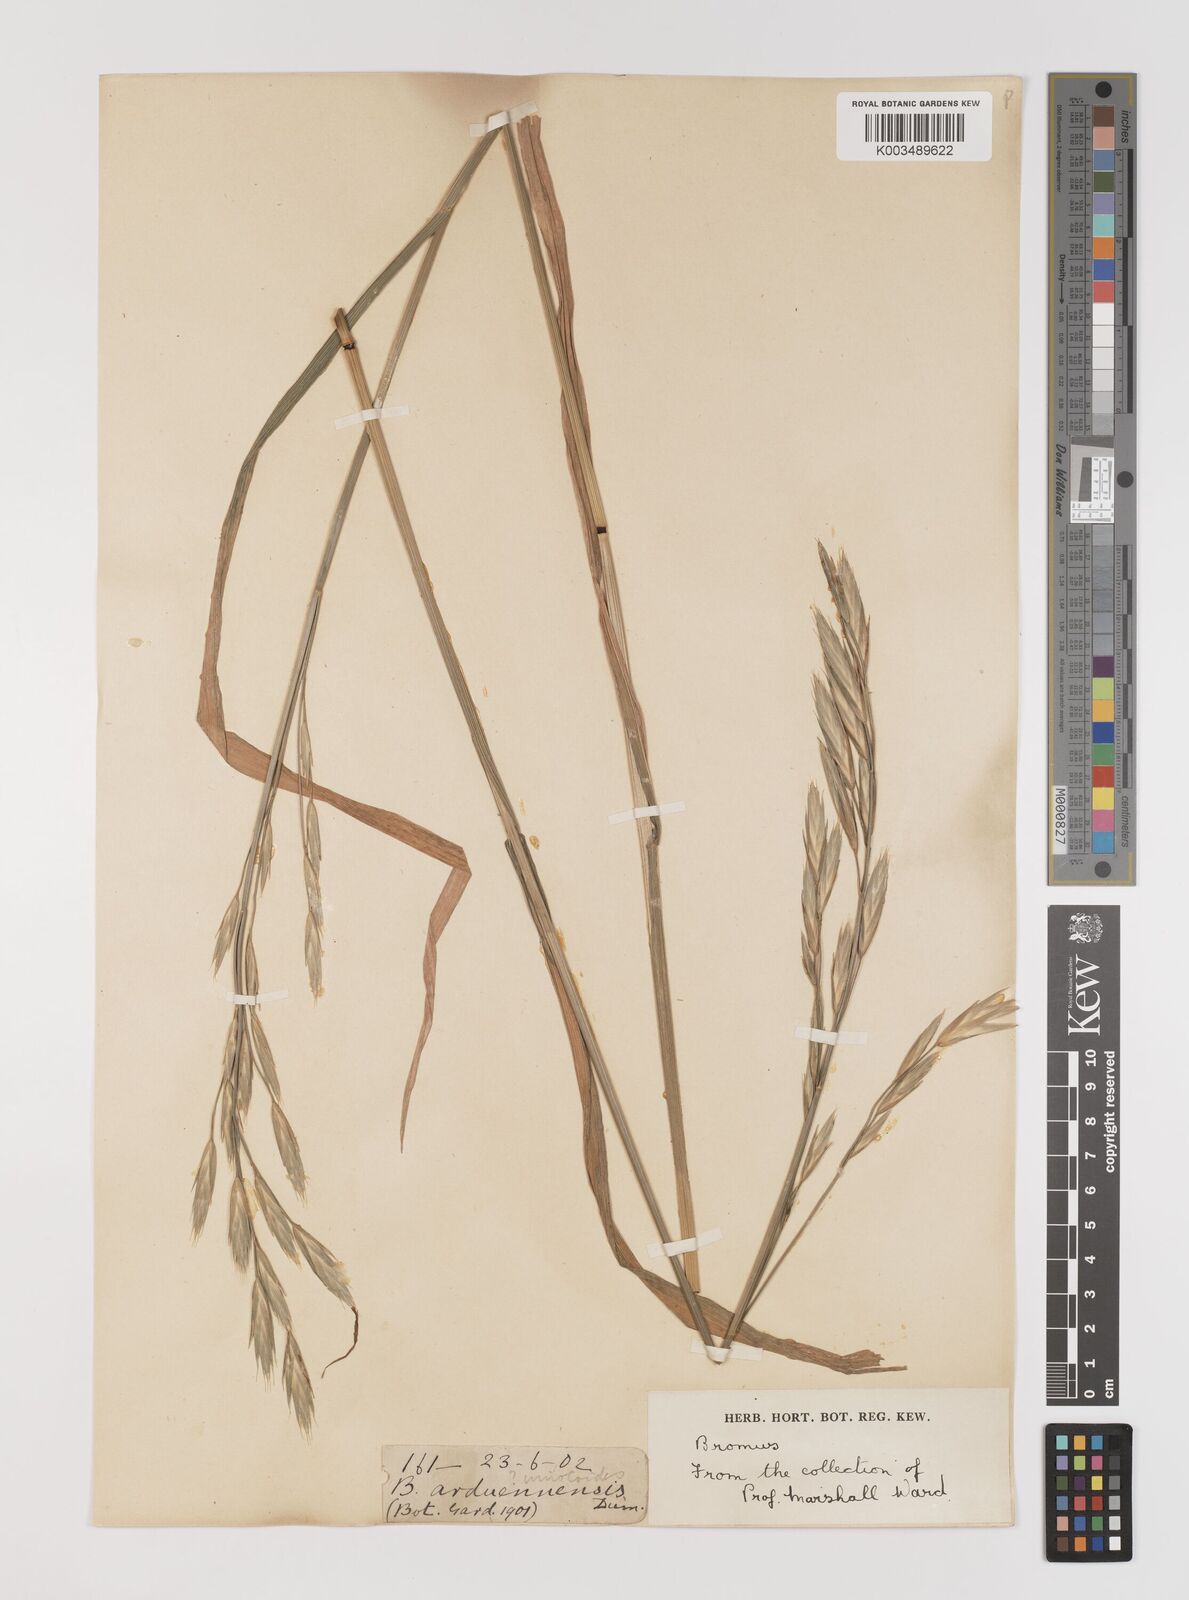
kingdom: Plantae
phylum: Tracheophyta
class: Liliopsida
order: Poales
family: Poaceae
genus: Bromus
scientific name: Bromus catharticus
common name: Rescuegrass
